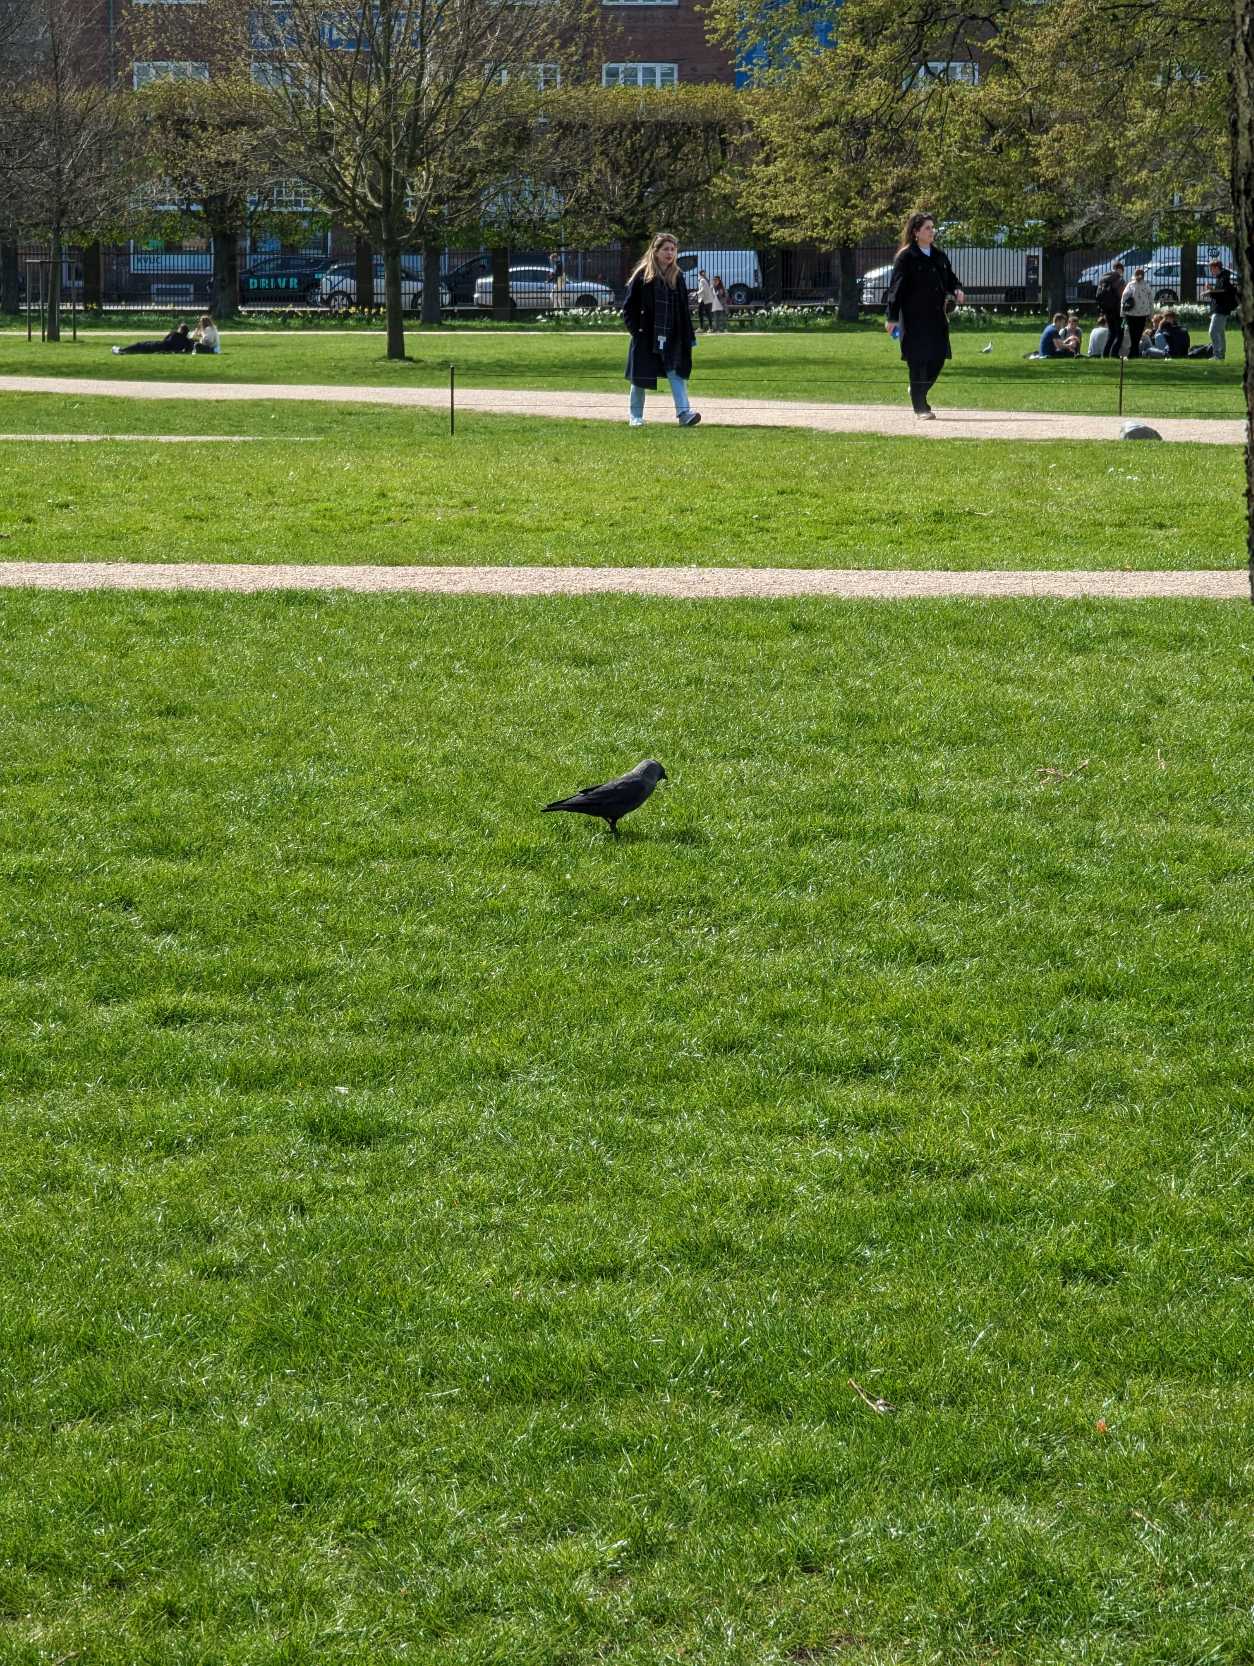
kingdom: Animalia
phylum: Chordata
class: Aves
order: Passeriformes
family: Corvidae
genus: Coloeus
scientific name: Coloeus monedula
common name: Allike
